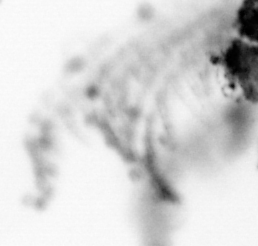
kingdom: Animalia
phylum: Arthropoda
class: Maxillopoda
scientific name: Maxillopoda
